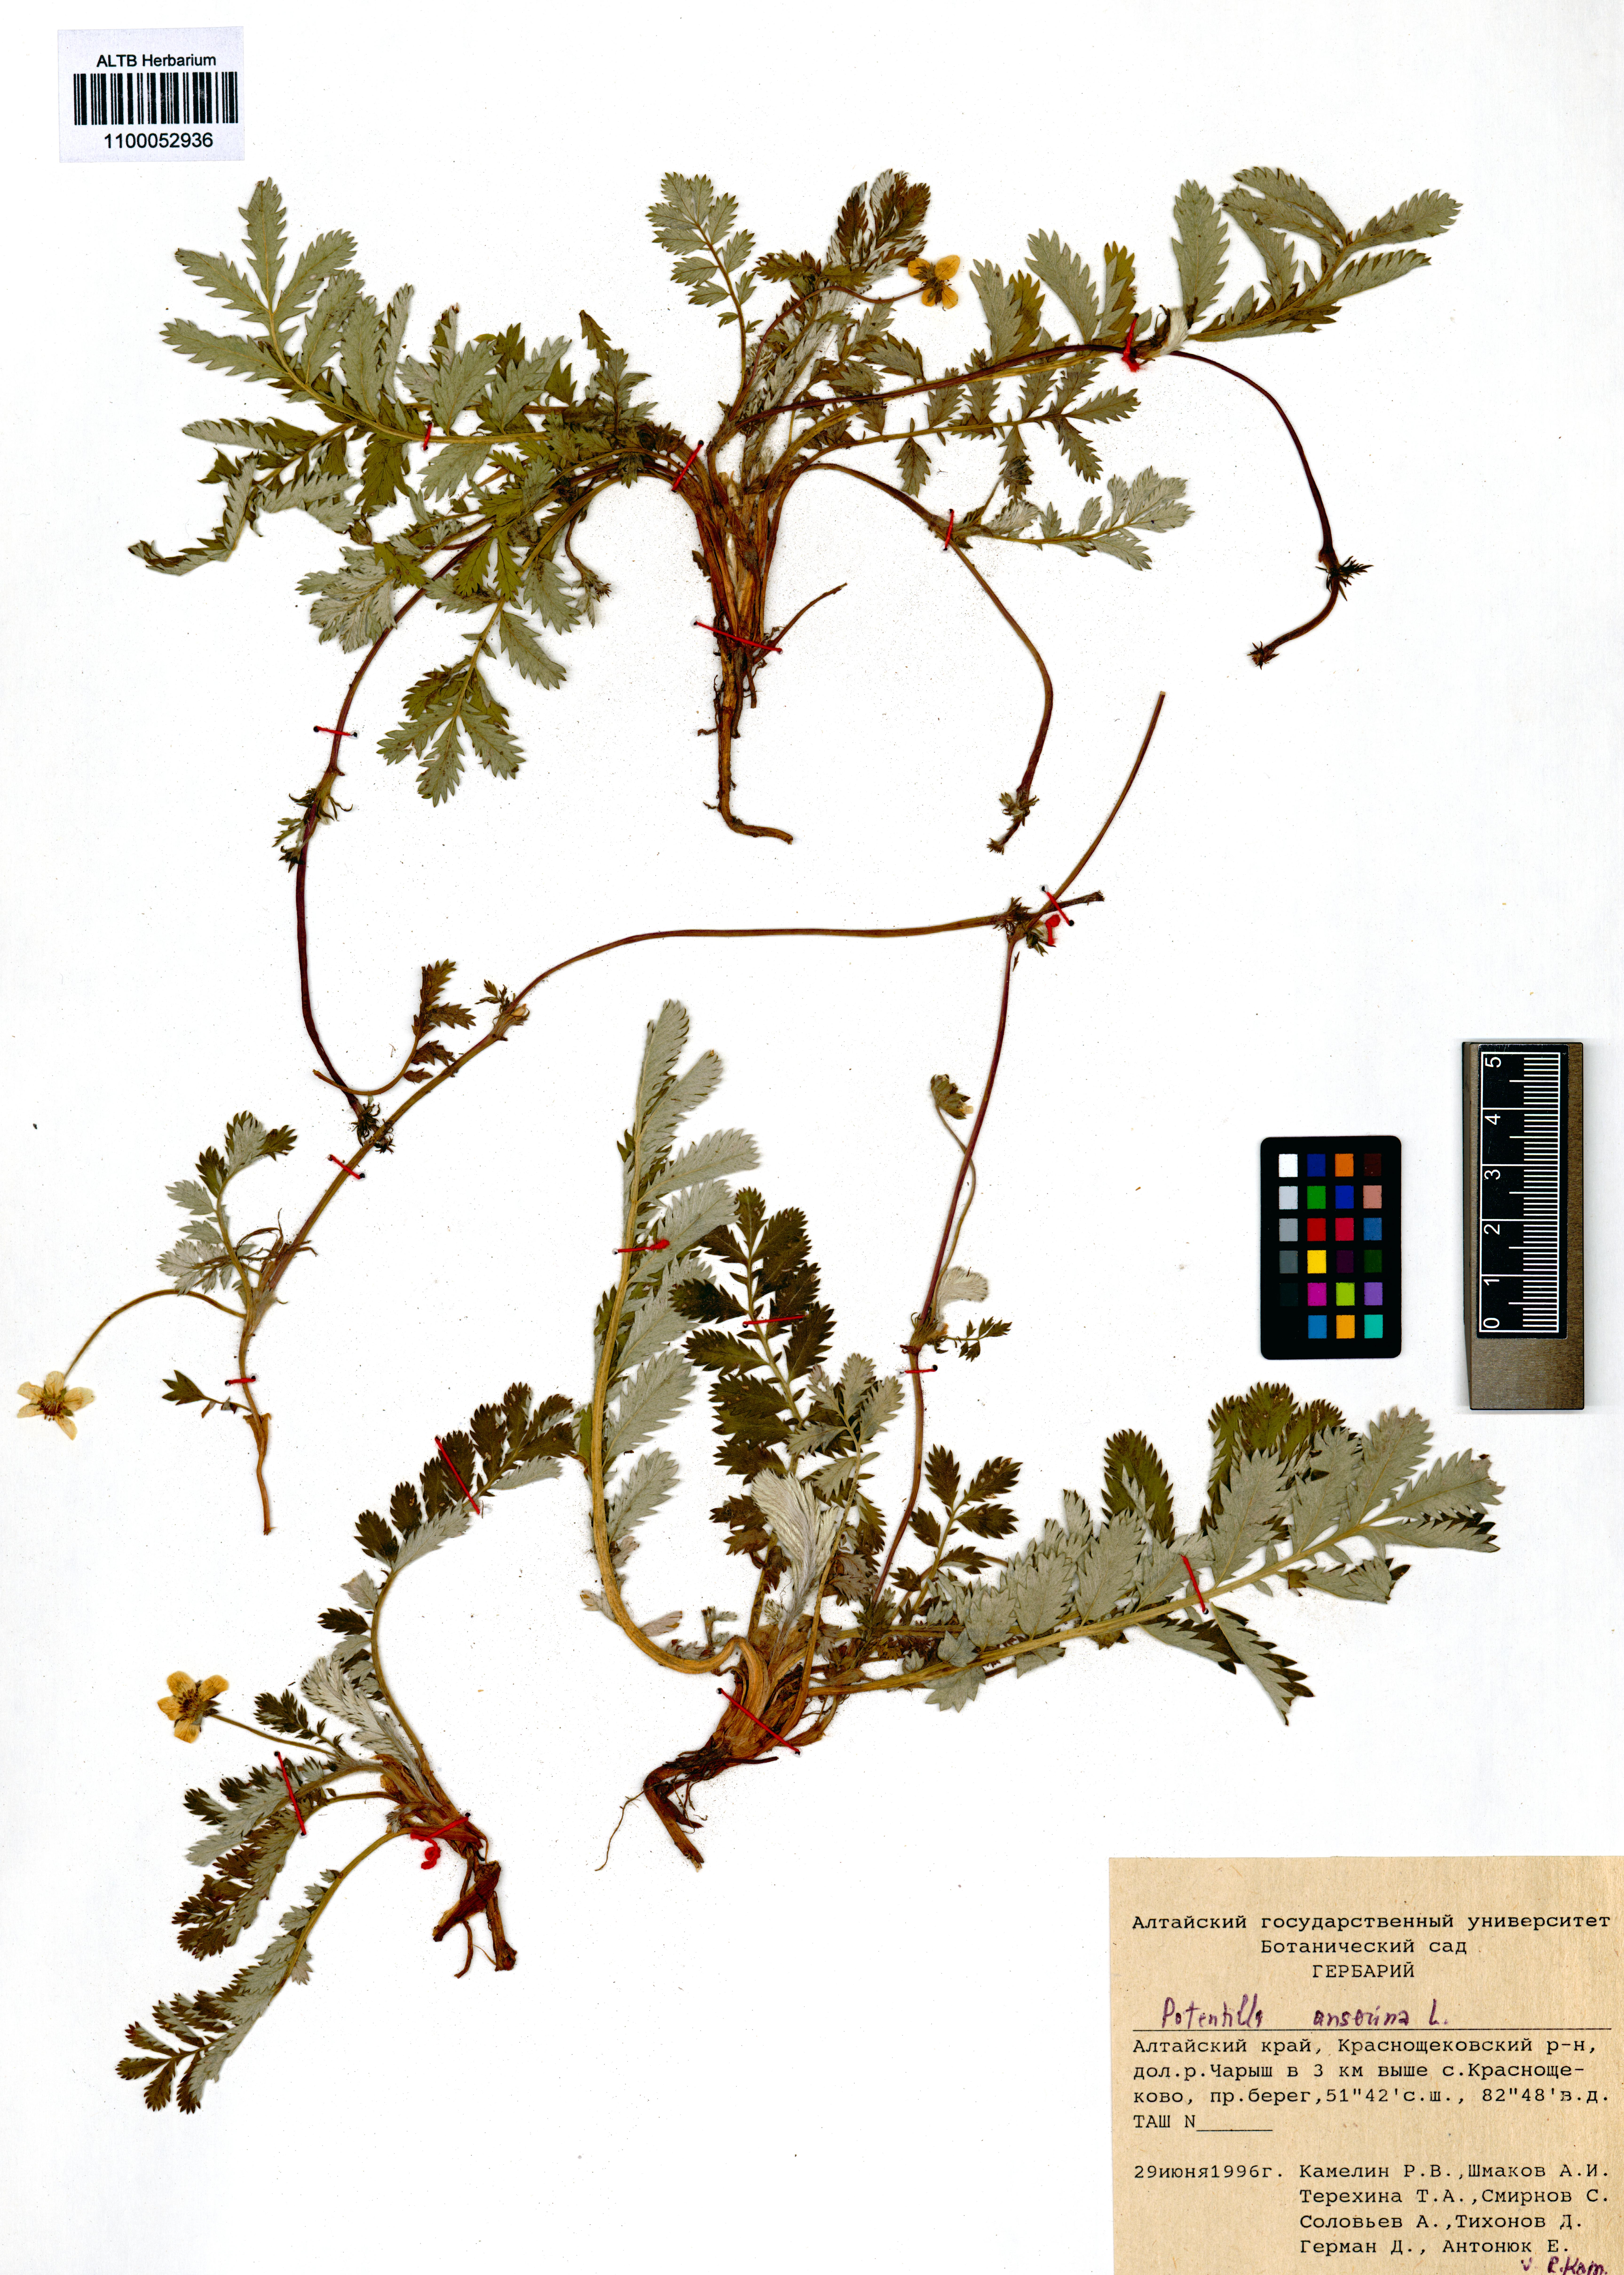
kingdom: Plantae
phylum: Tracheophyta
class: Magnoliopsida
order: Rosales
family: Rosaceae
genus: Argentina
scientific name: Argentina anserina
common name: Common silverweed
